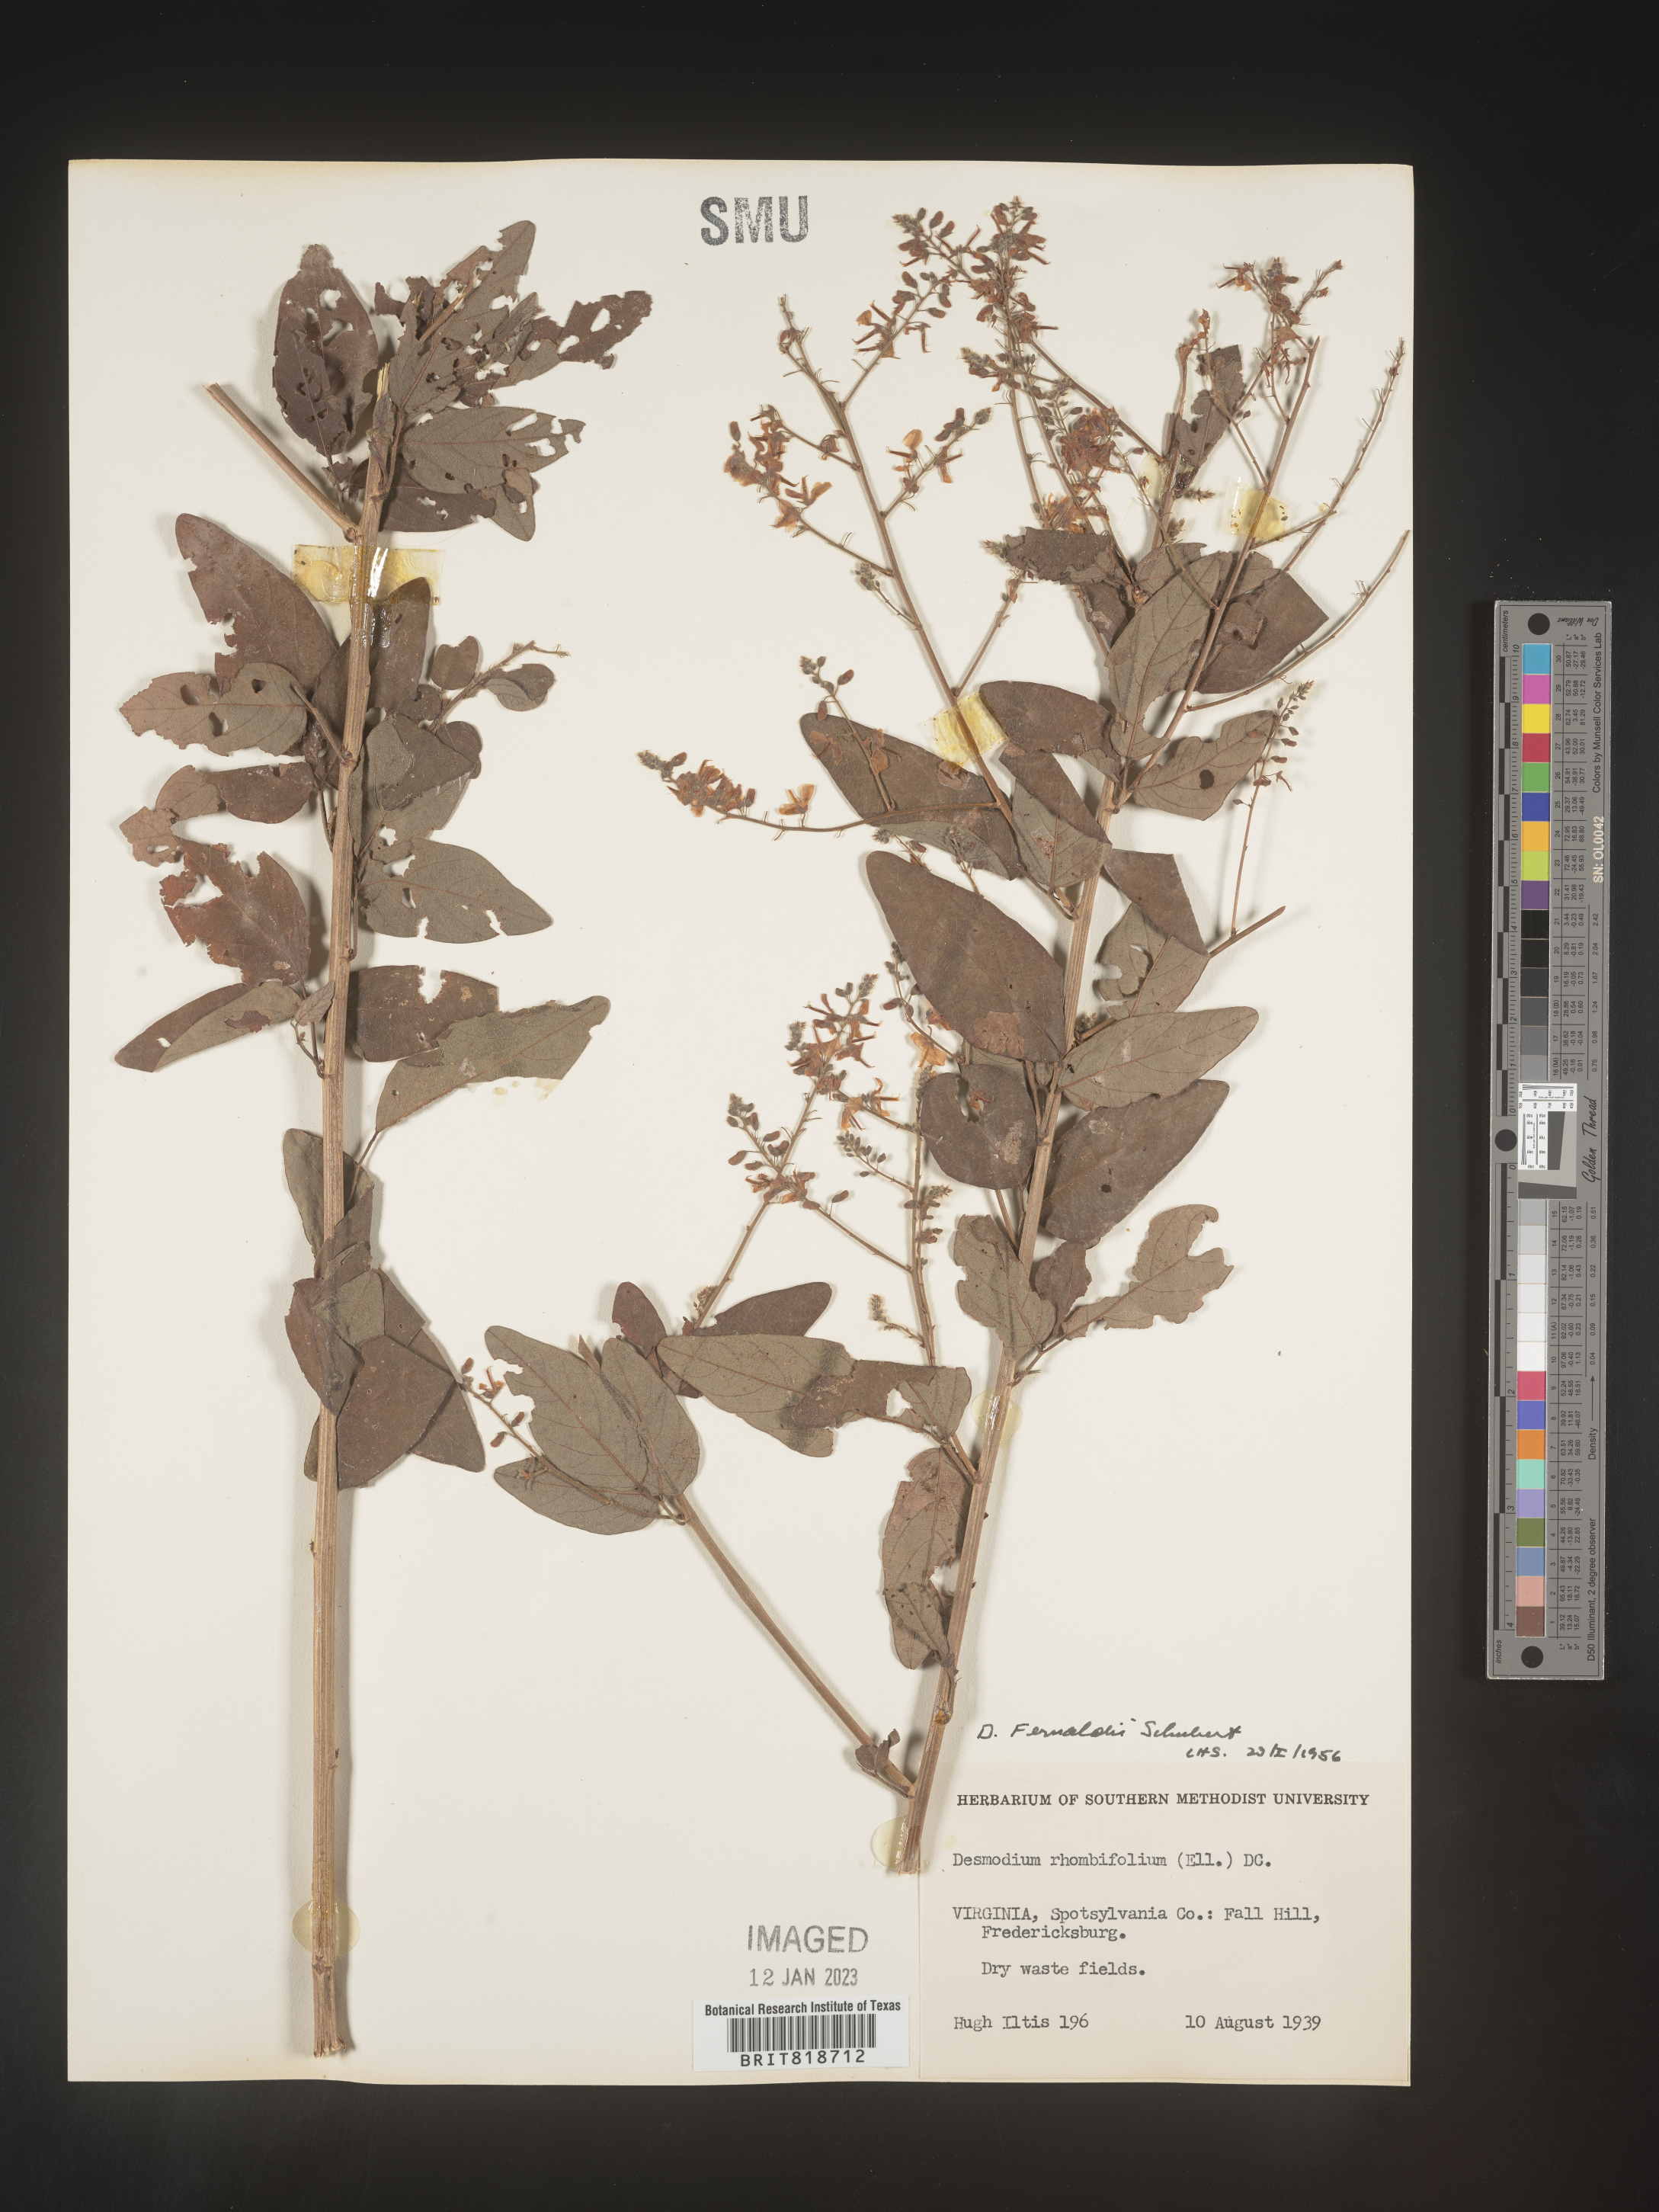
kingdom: Plantae
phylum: Tracheophyta
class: Magnoliopsida
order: Fabales
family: Fabaceae
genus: Desmodium
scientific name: Desmodium
